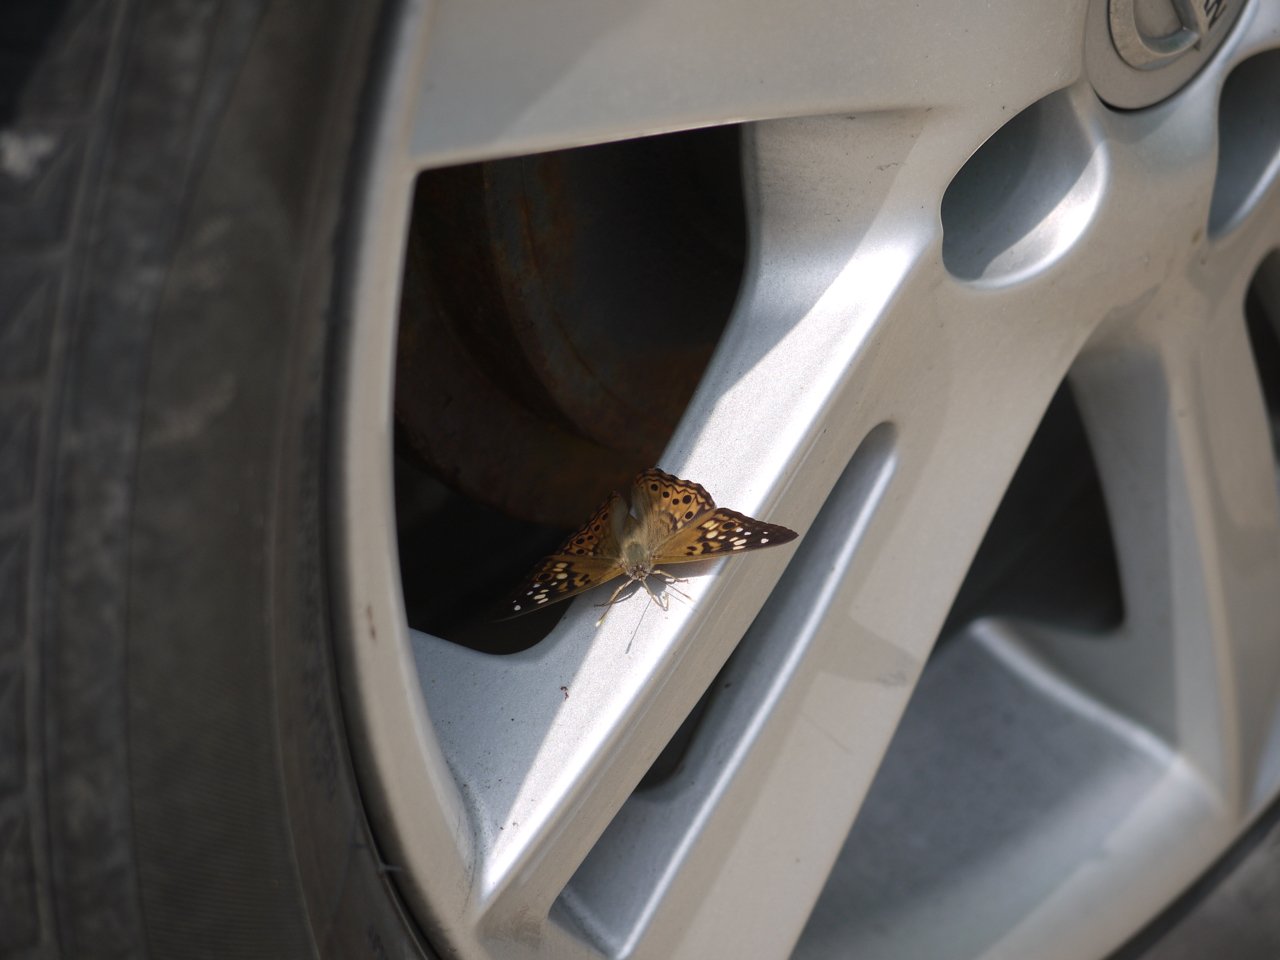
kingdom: Animalia
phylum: Arthropoda
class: Insecta
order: Lepidoptera
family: Nymphalidae
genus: Asterocampa
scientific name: Asterocampa celtis
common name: Hackberry Emperor
